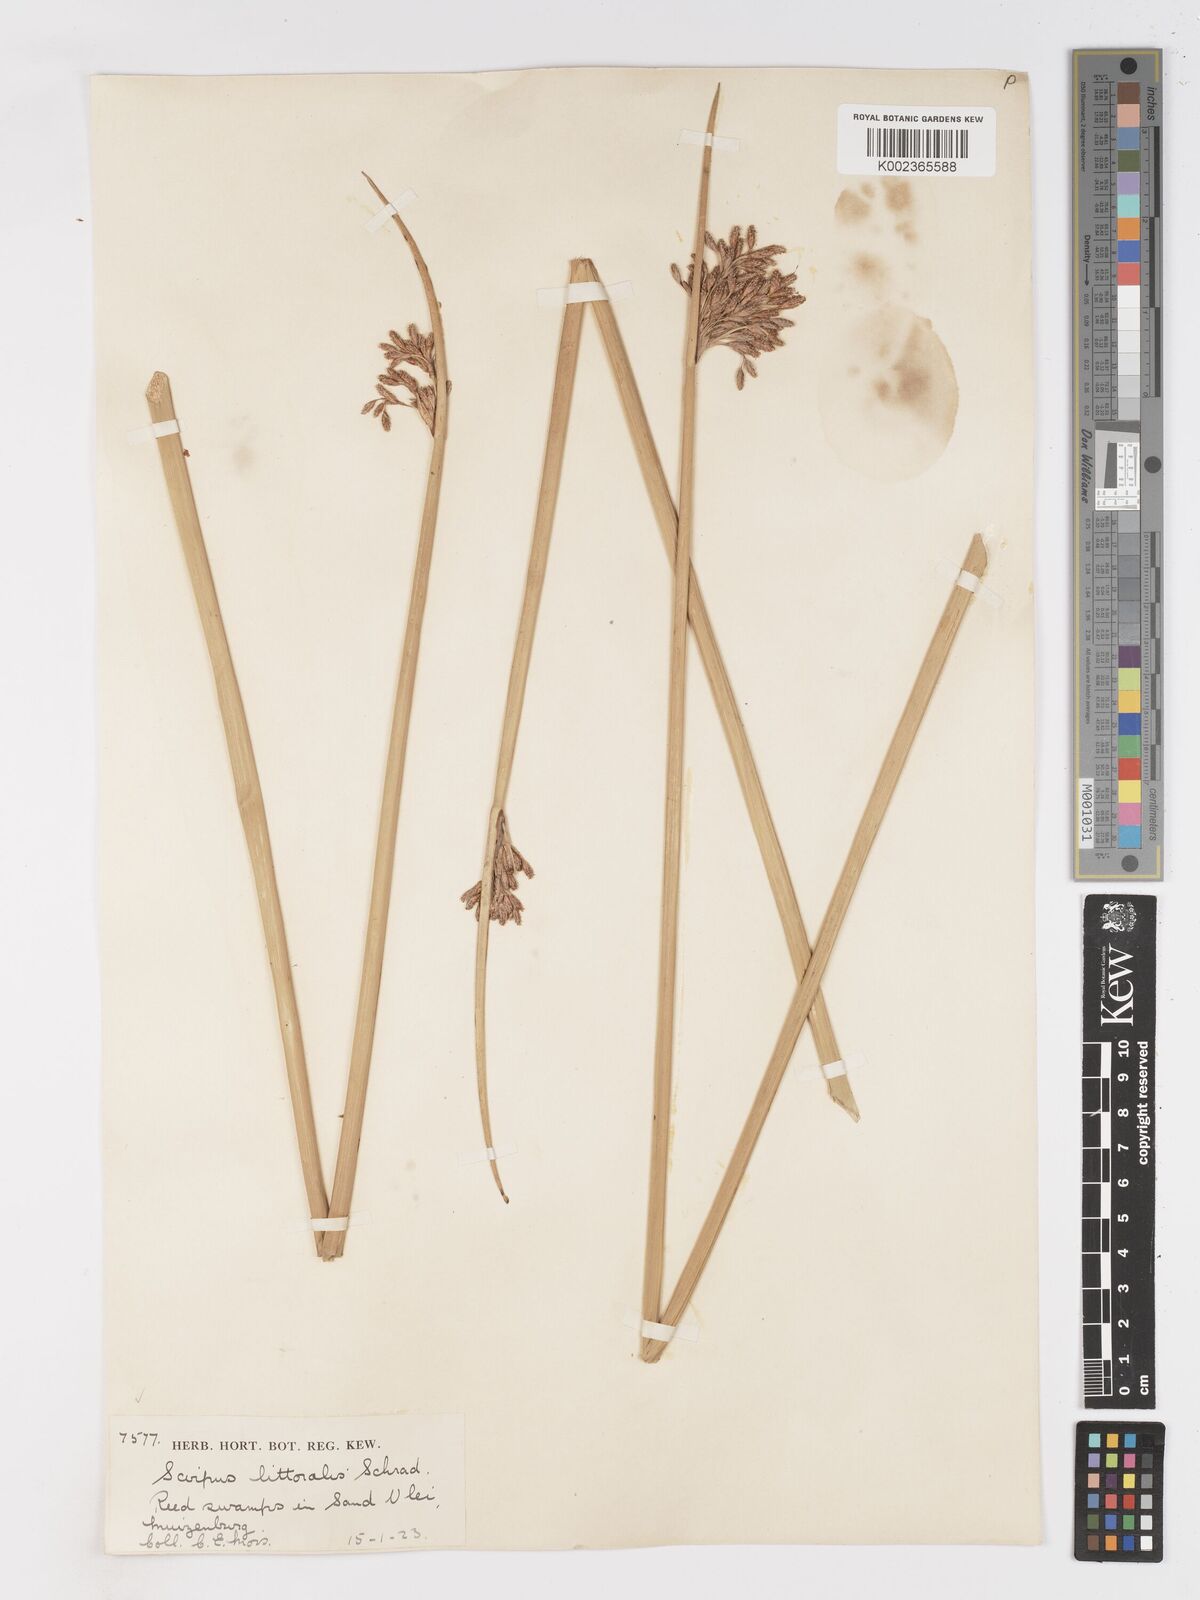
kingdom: Plantae
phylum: Tracheophyta
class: Liliopsida
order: Poales
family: Cyperaceae
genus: Schoenoplectus
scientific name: Schoenoplectus
